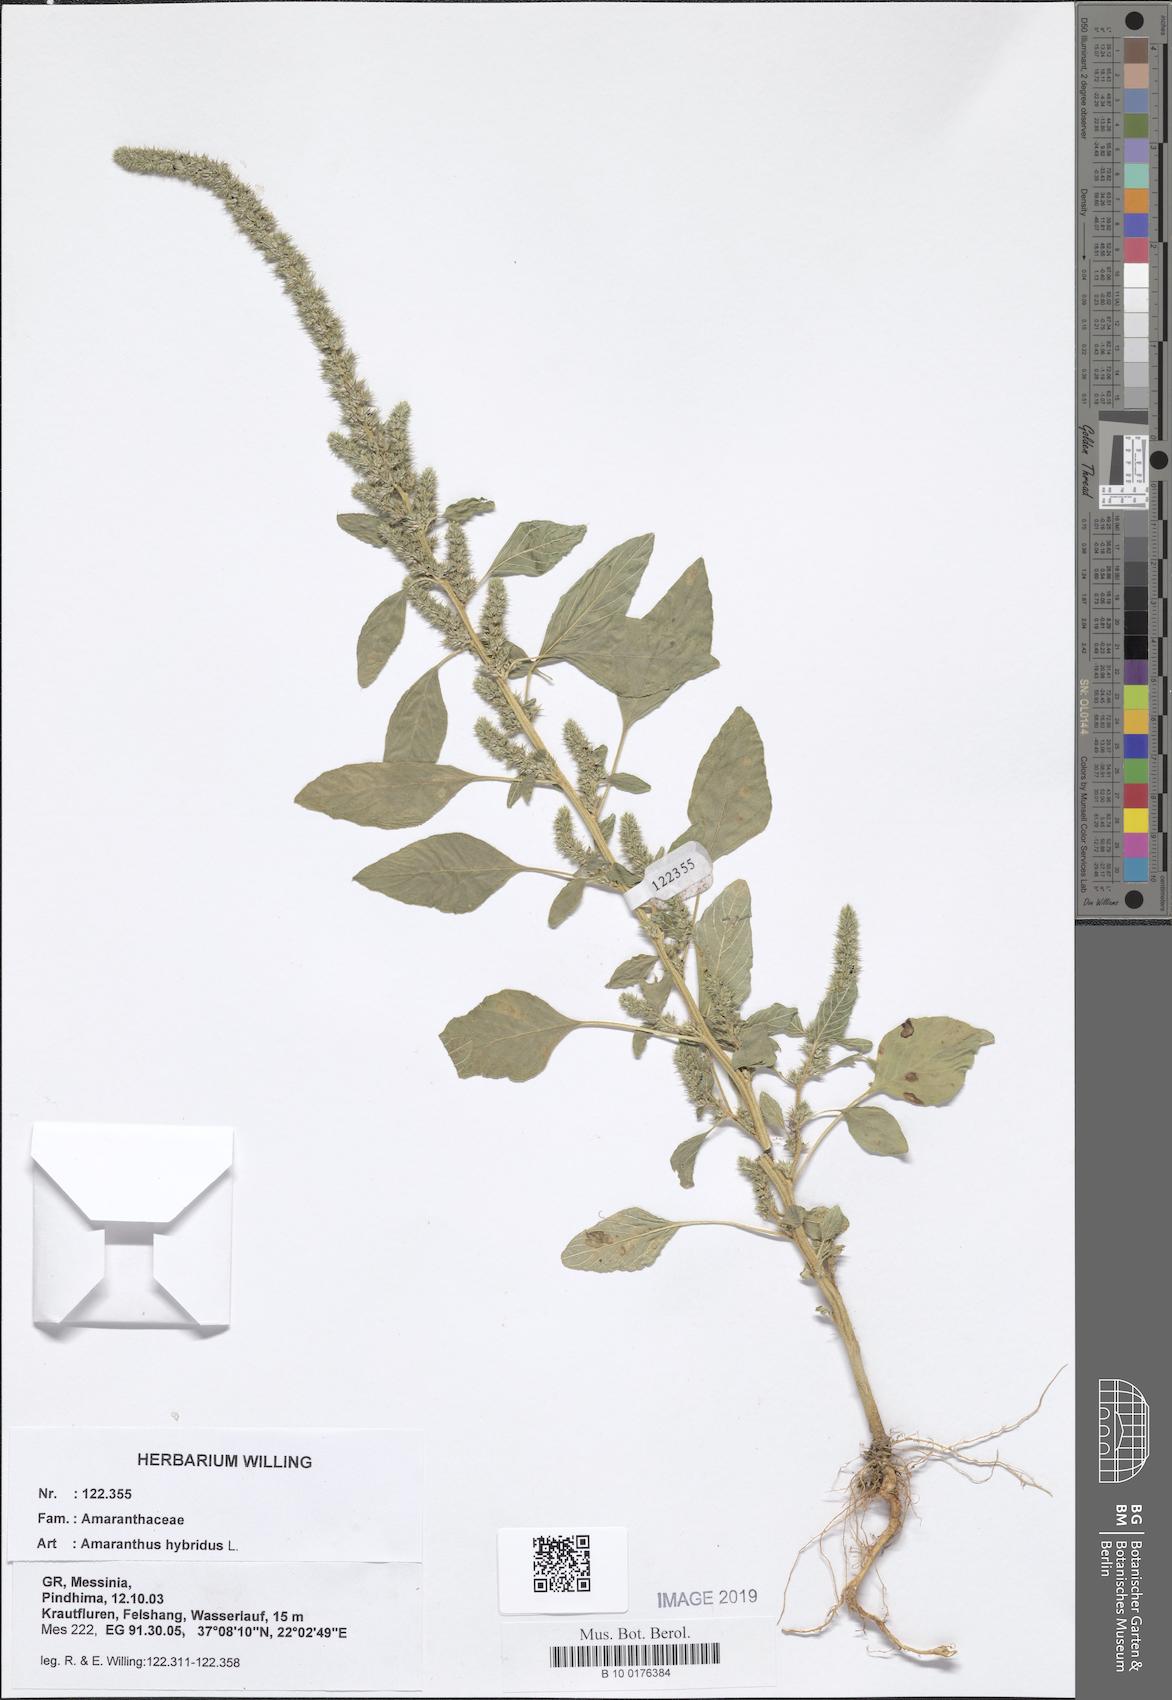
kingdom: Plantae
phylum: Tracheophyta
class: Magnoliopsida
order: Caryophyllales
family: Amaranthaceae
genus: Amaranthus
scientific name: Amaranthus hybridus
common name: Green amaranth
